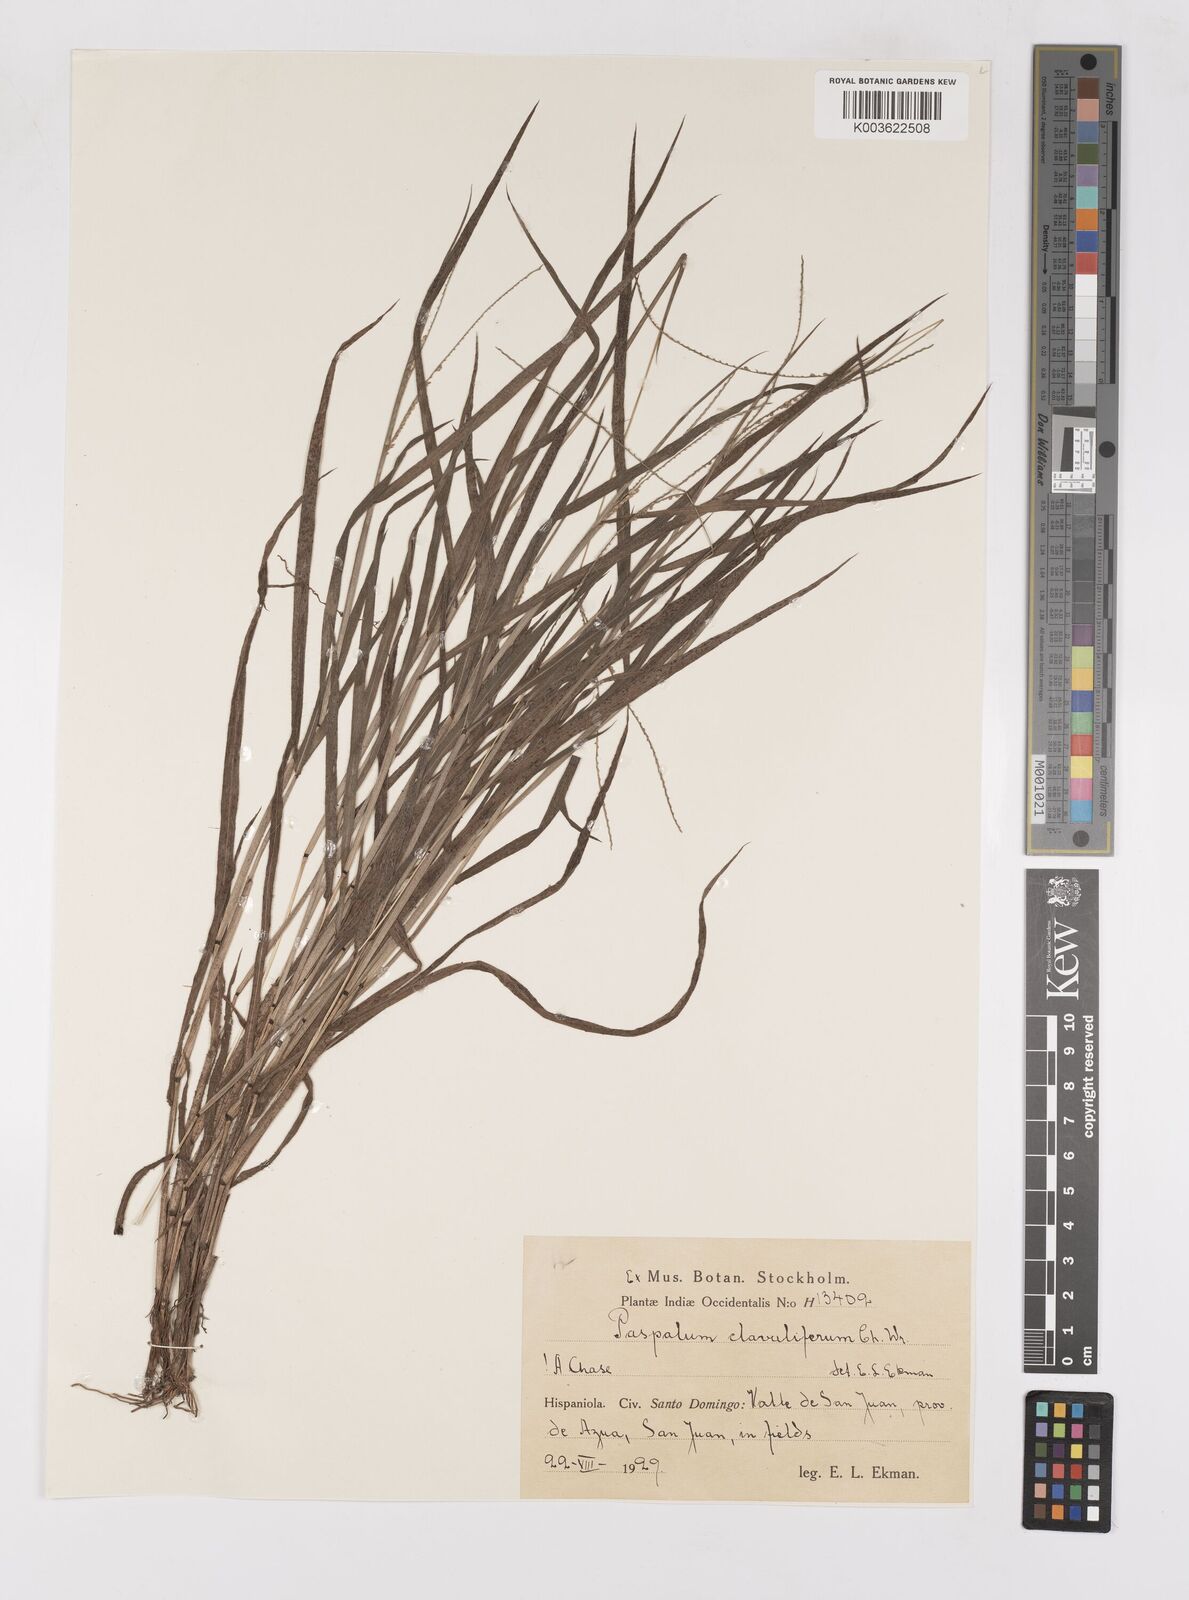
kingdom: Plantae
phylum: Tracheophyta
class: Liliopsida
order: Poales
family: Poaceae
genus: Paspalum
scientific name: Paspalum clavuliferum
